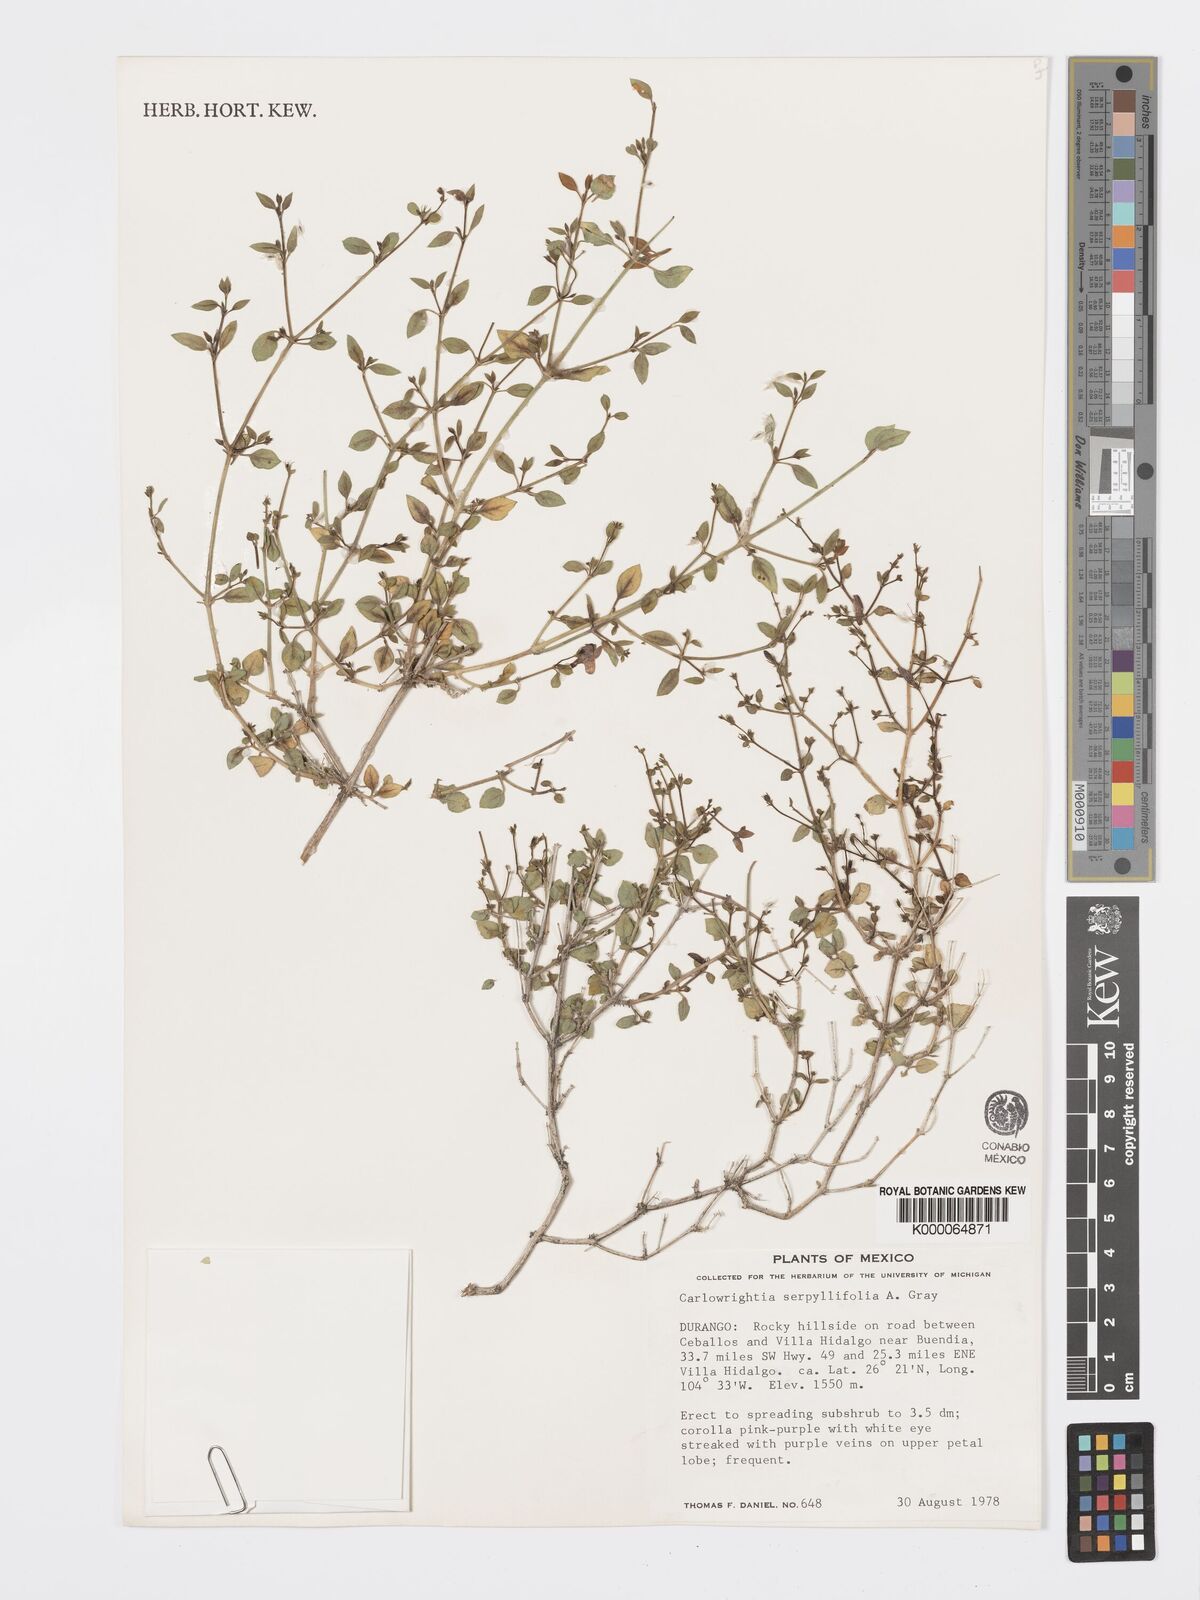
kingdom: Plantae
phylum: Tracheophyta
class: Magnoliopsida
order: Lamiales
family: Acanthaceae
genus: Carlowrightia
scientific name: Carlowrightia serpyllifolia
